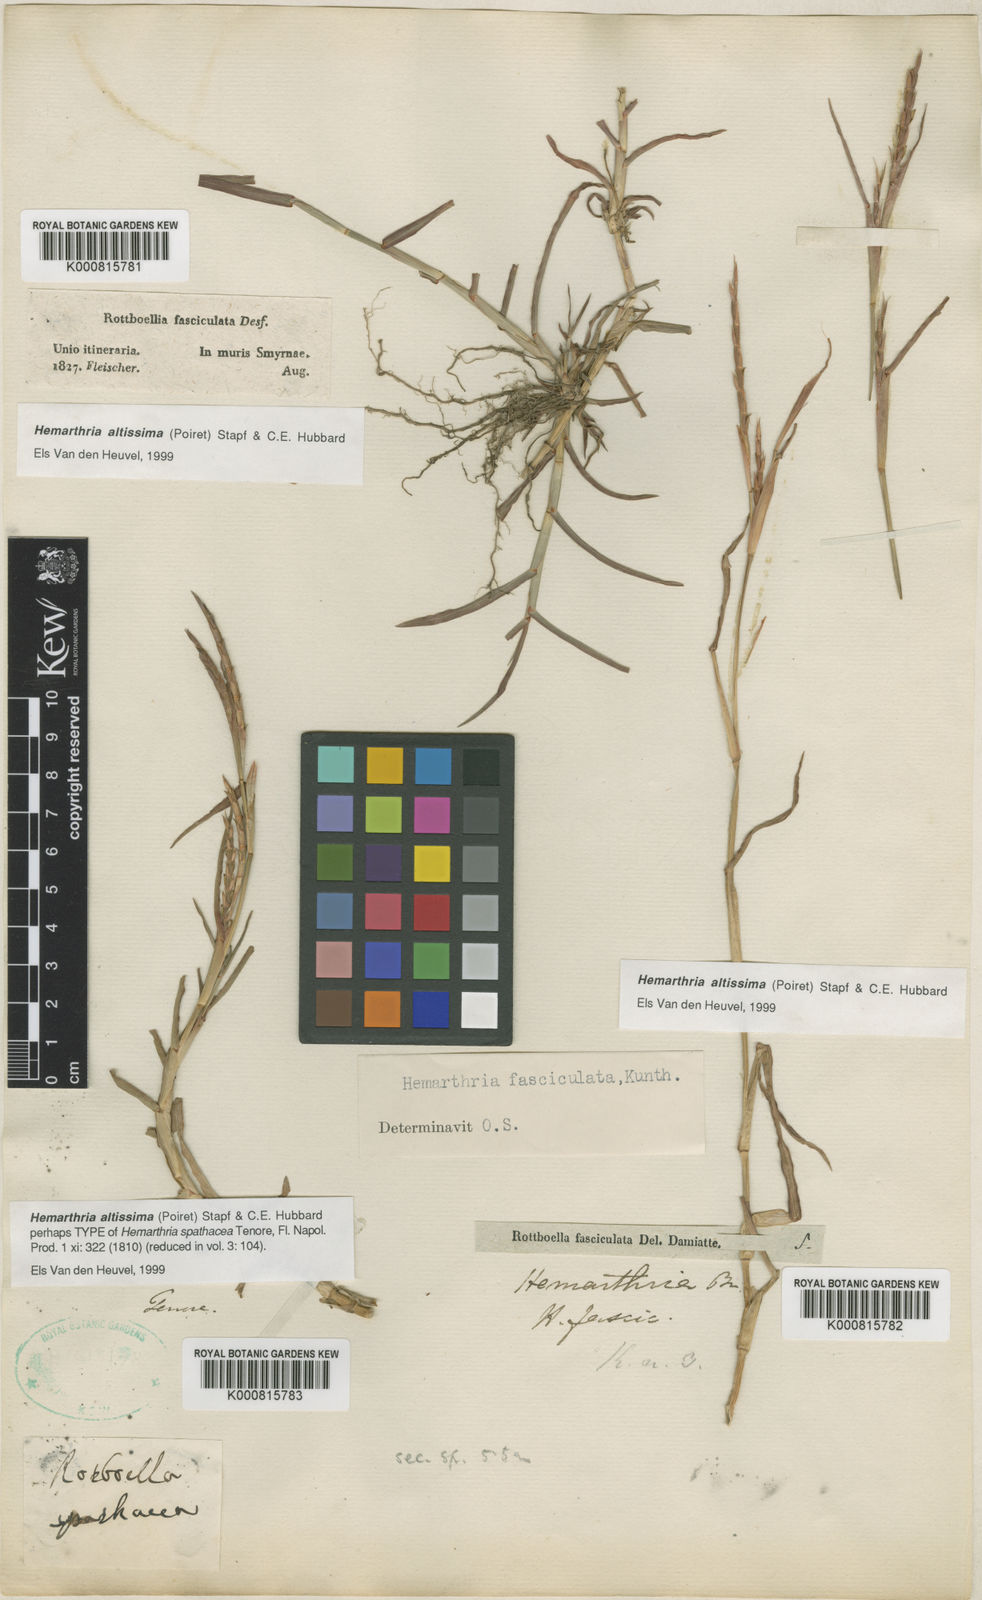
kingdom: Plantae
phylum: Tracheophyta
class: Liliopsida
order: Poales
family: Poaceae
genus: Hemarthria
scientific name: Hemarthria altissima
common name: African jointgrass
